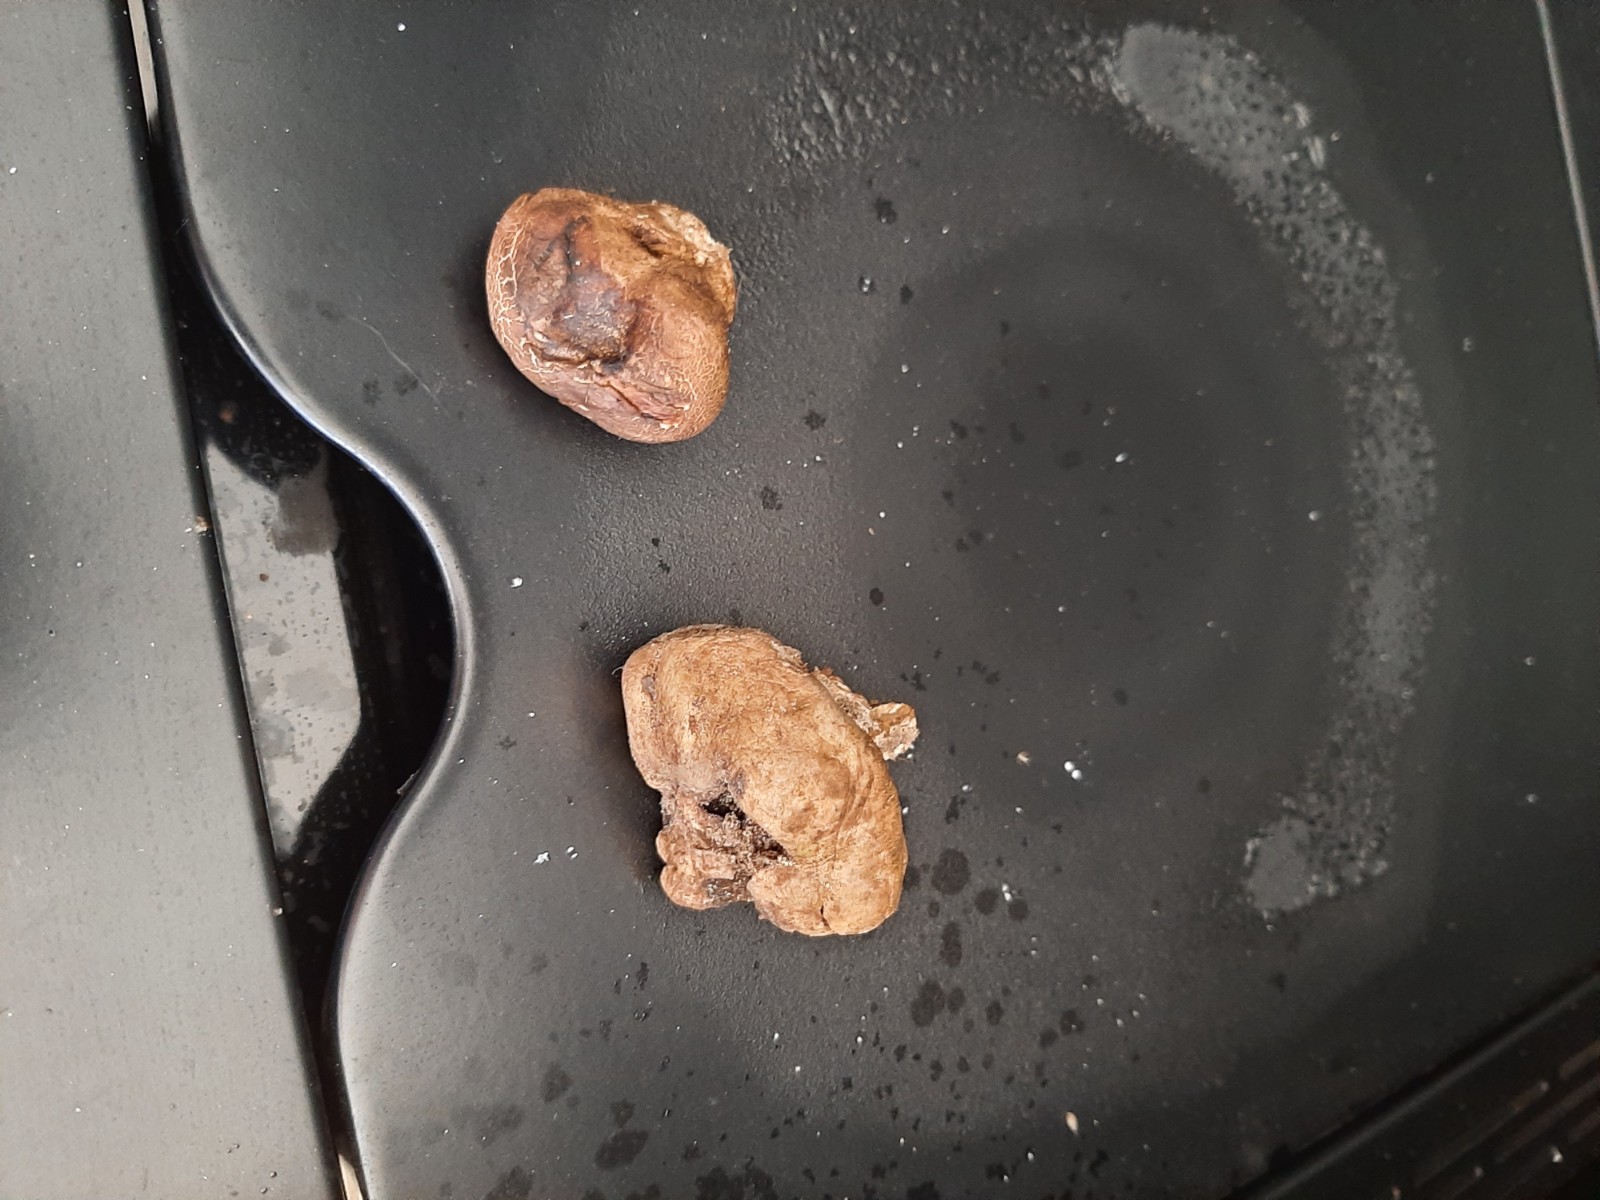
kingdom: Fungi
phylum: Basidiomycota
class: Agaricomycetes
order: Boletales
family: Sclerodermataceae
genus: Scleroderma
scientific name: Scleroderma
